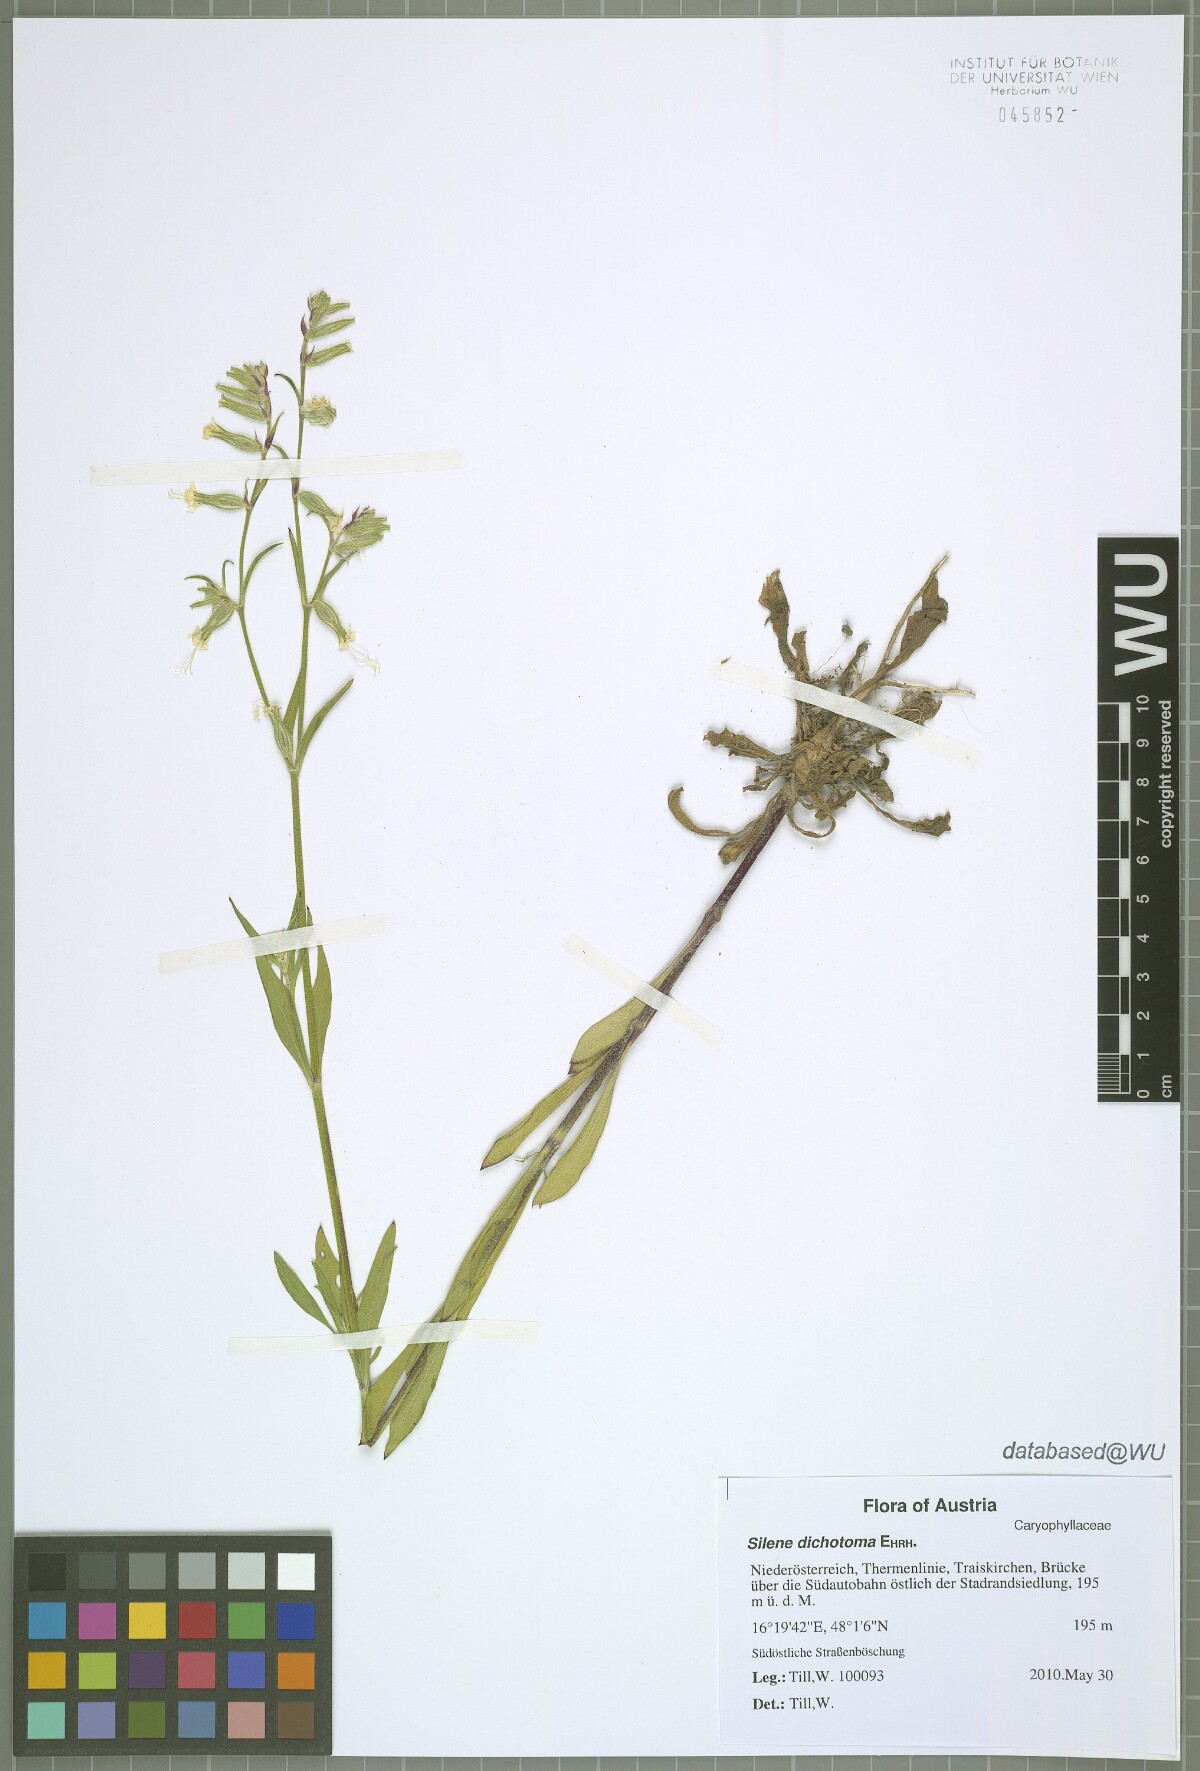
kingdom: Plantae
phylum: Tracheophyta
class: Magnoliopsida
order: Caryophyllales
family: Caryophyllaceae
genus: Silene
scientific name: Silene dichotoma
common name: Forked catchfly
